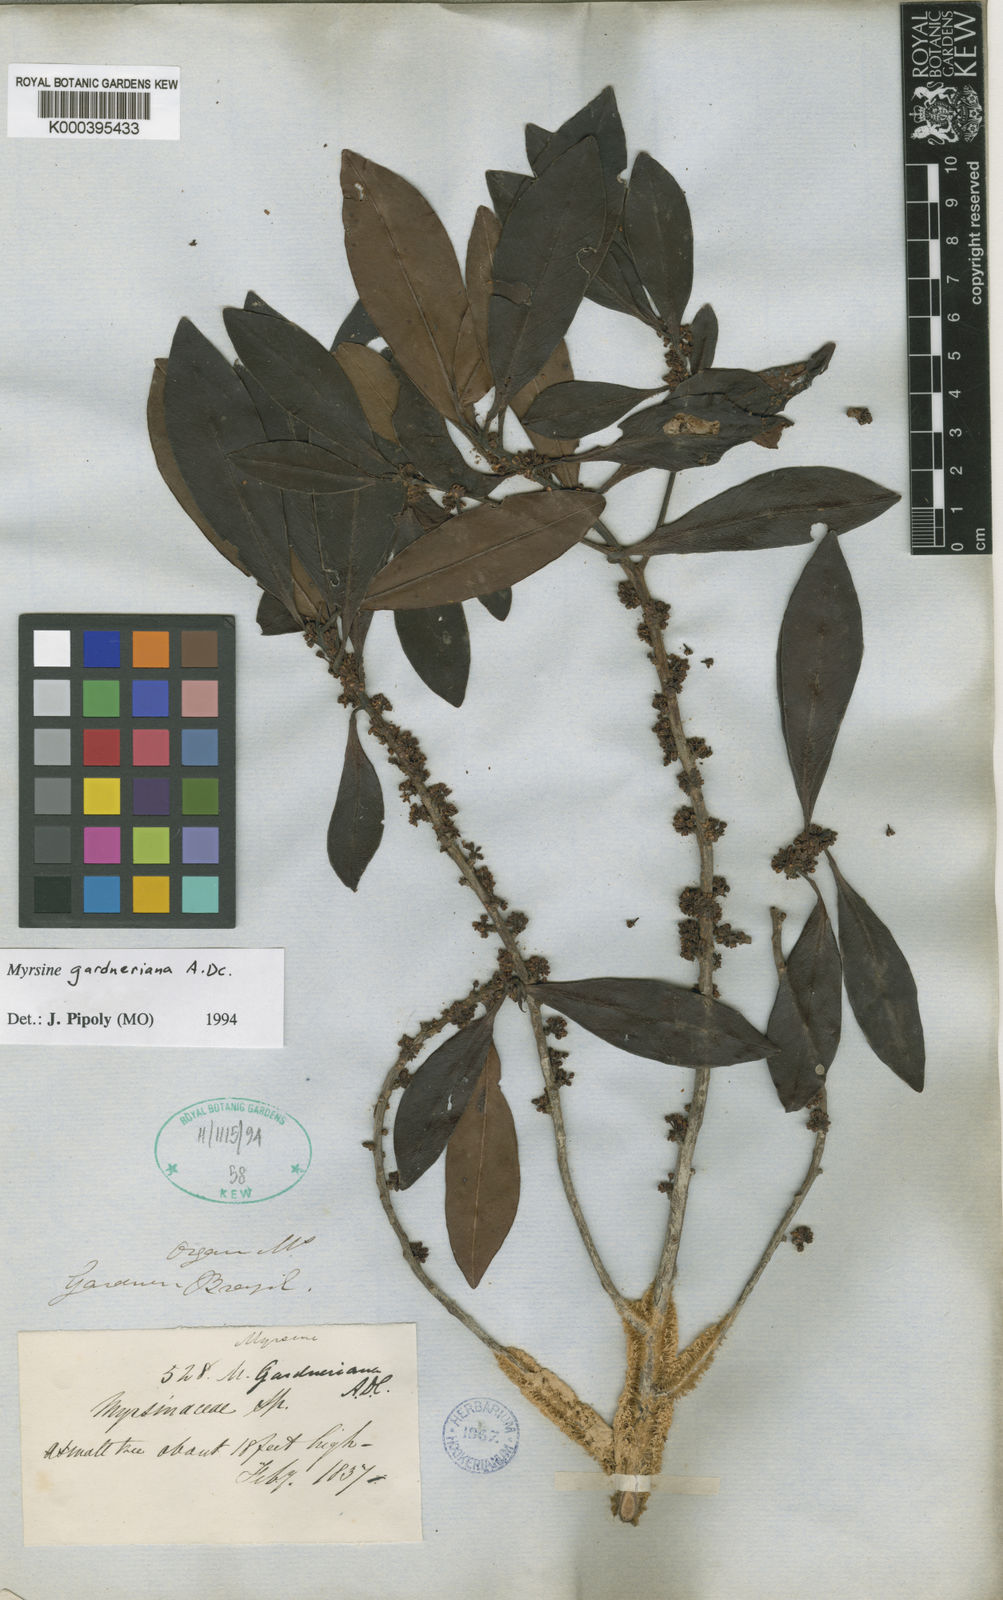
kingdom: Plantae
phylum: Tracheophyta
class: Magnoliopsida
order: Ericales
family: Primulaceae
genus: Myrsine
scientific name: Myrsine gardneriana
